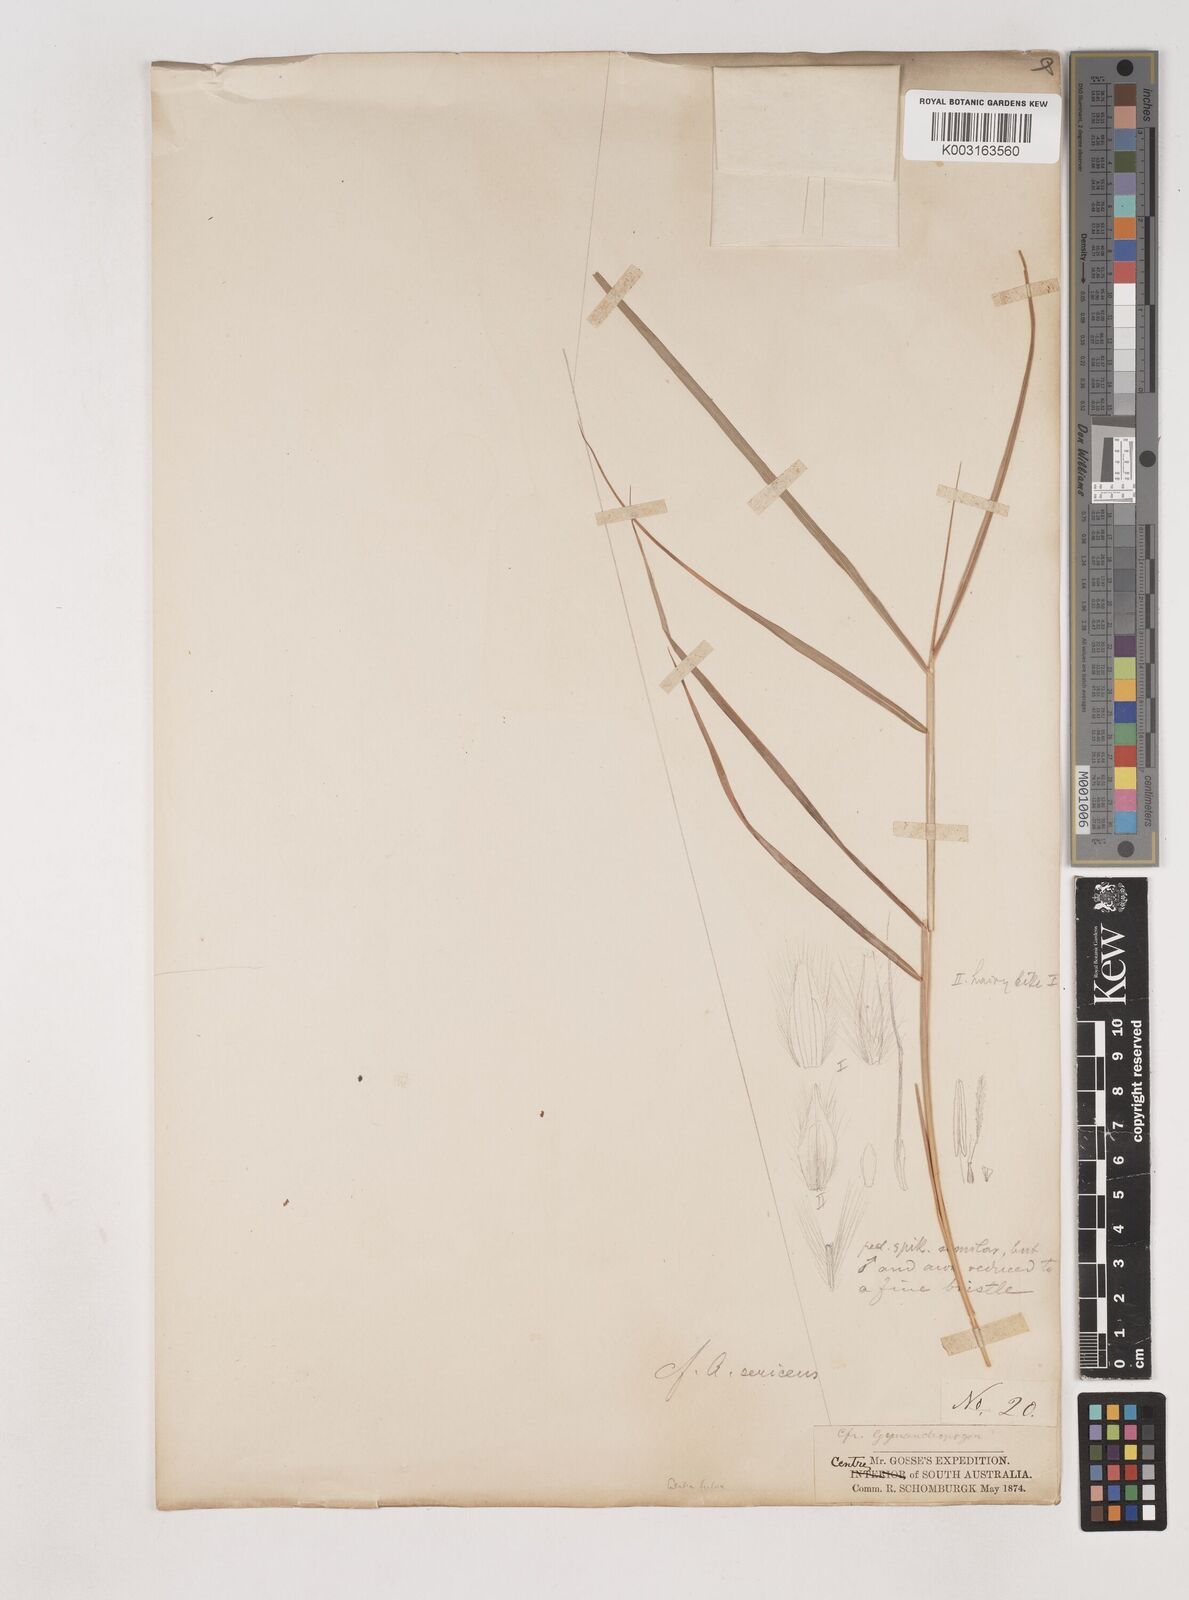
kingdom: Plantae
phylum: Tracheophyta
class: Liliopsida
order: Poales
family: Poaceae
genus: Dichanthium
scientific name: Dichanthium
